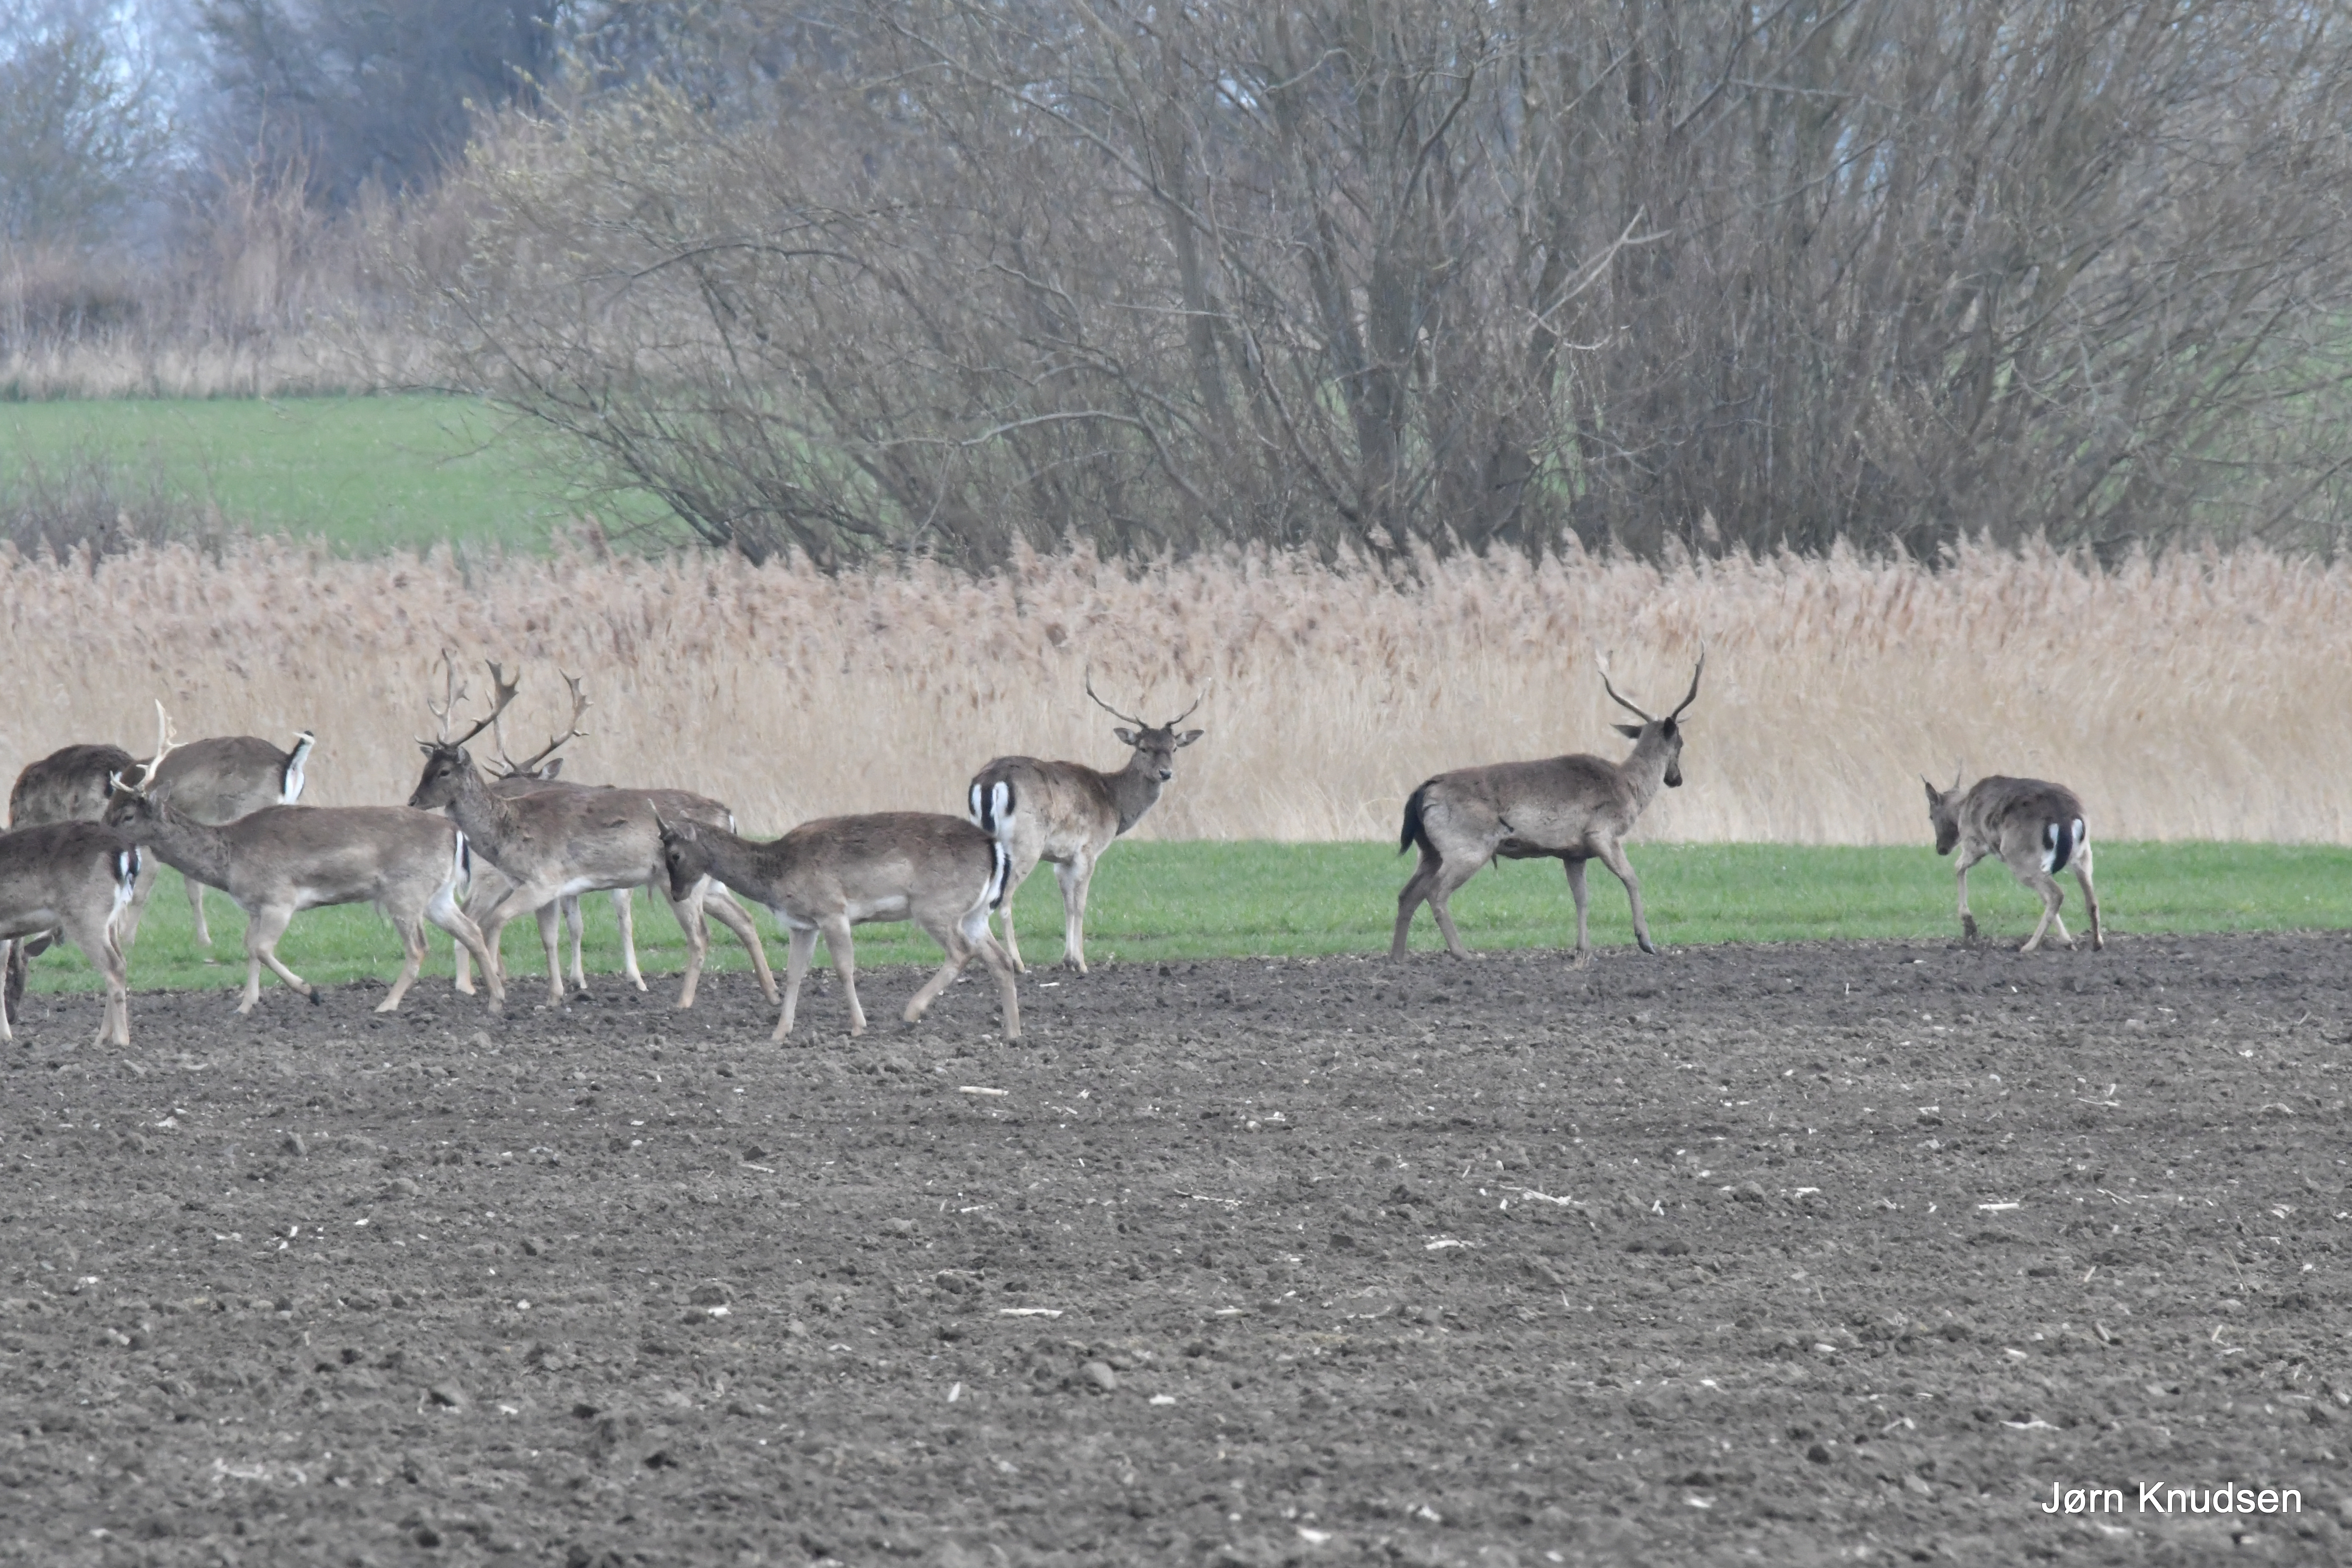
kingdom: Animalia
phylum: Chordata
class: Mammalia
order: Artiodactyla
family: Cervidae
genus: Dama
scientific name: Dama dama
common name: Dådyr
